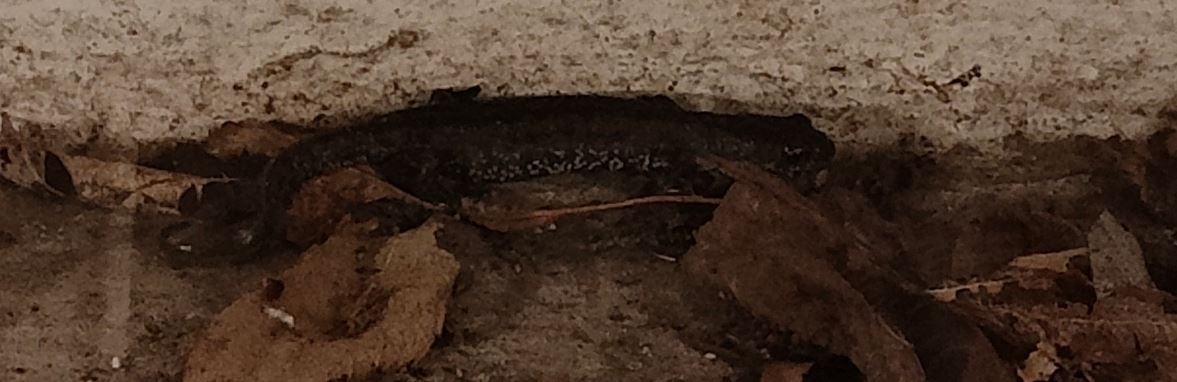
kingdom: Animalia
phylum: Chordata
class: Amphibia
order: Caudata
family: Salamandridae
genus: Triturus
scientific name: Triturus cristatus
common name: Stor vandsalamander
